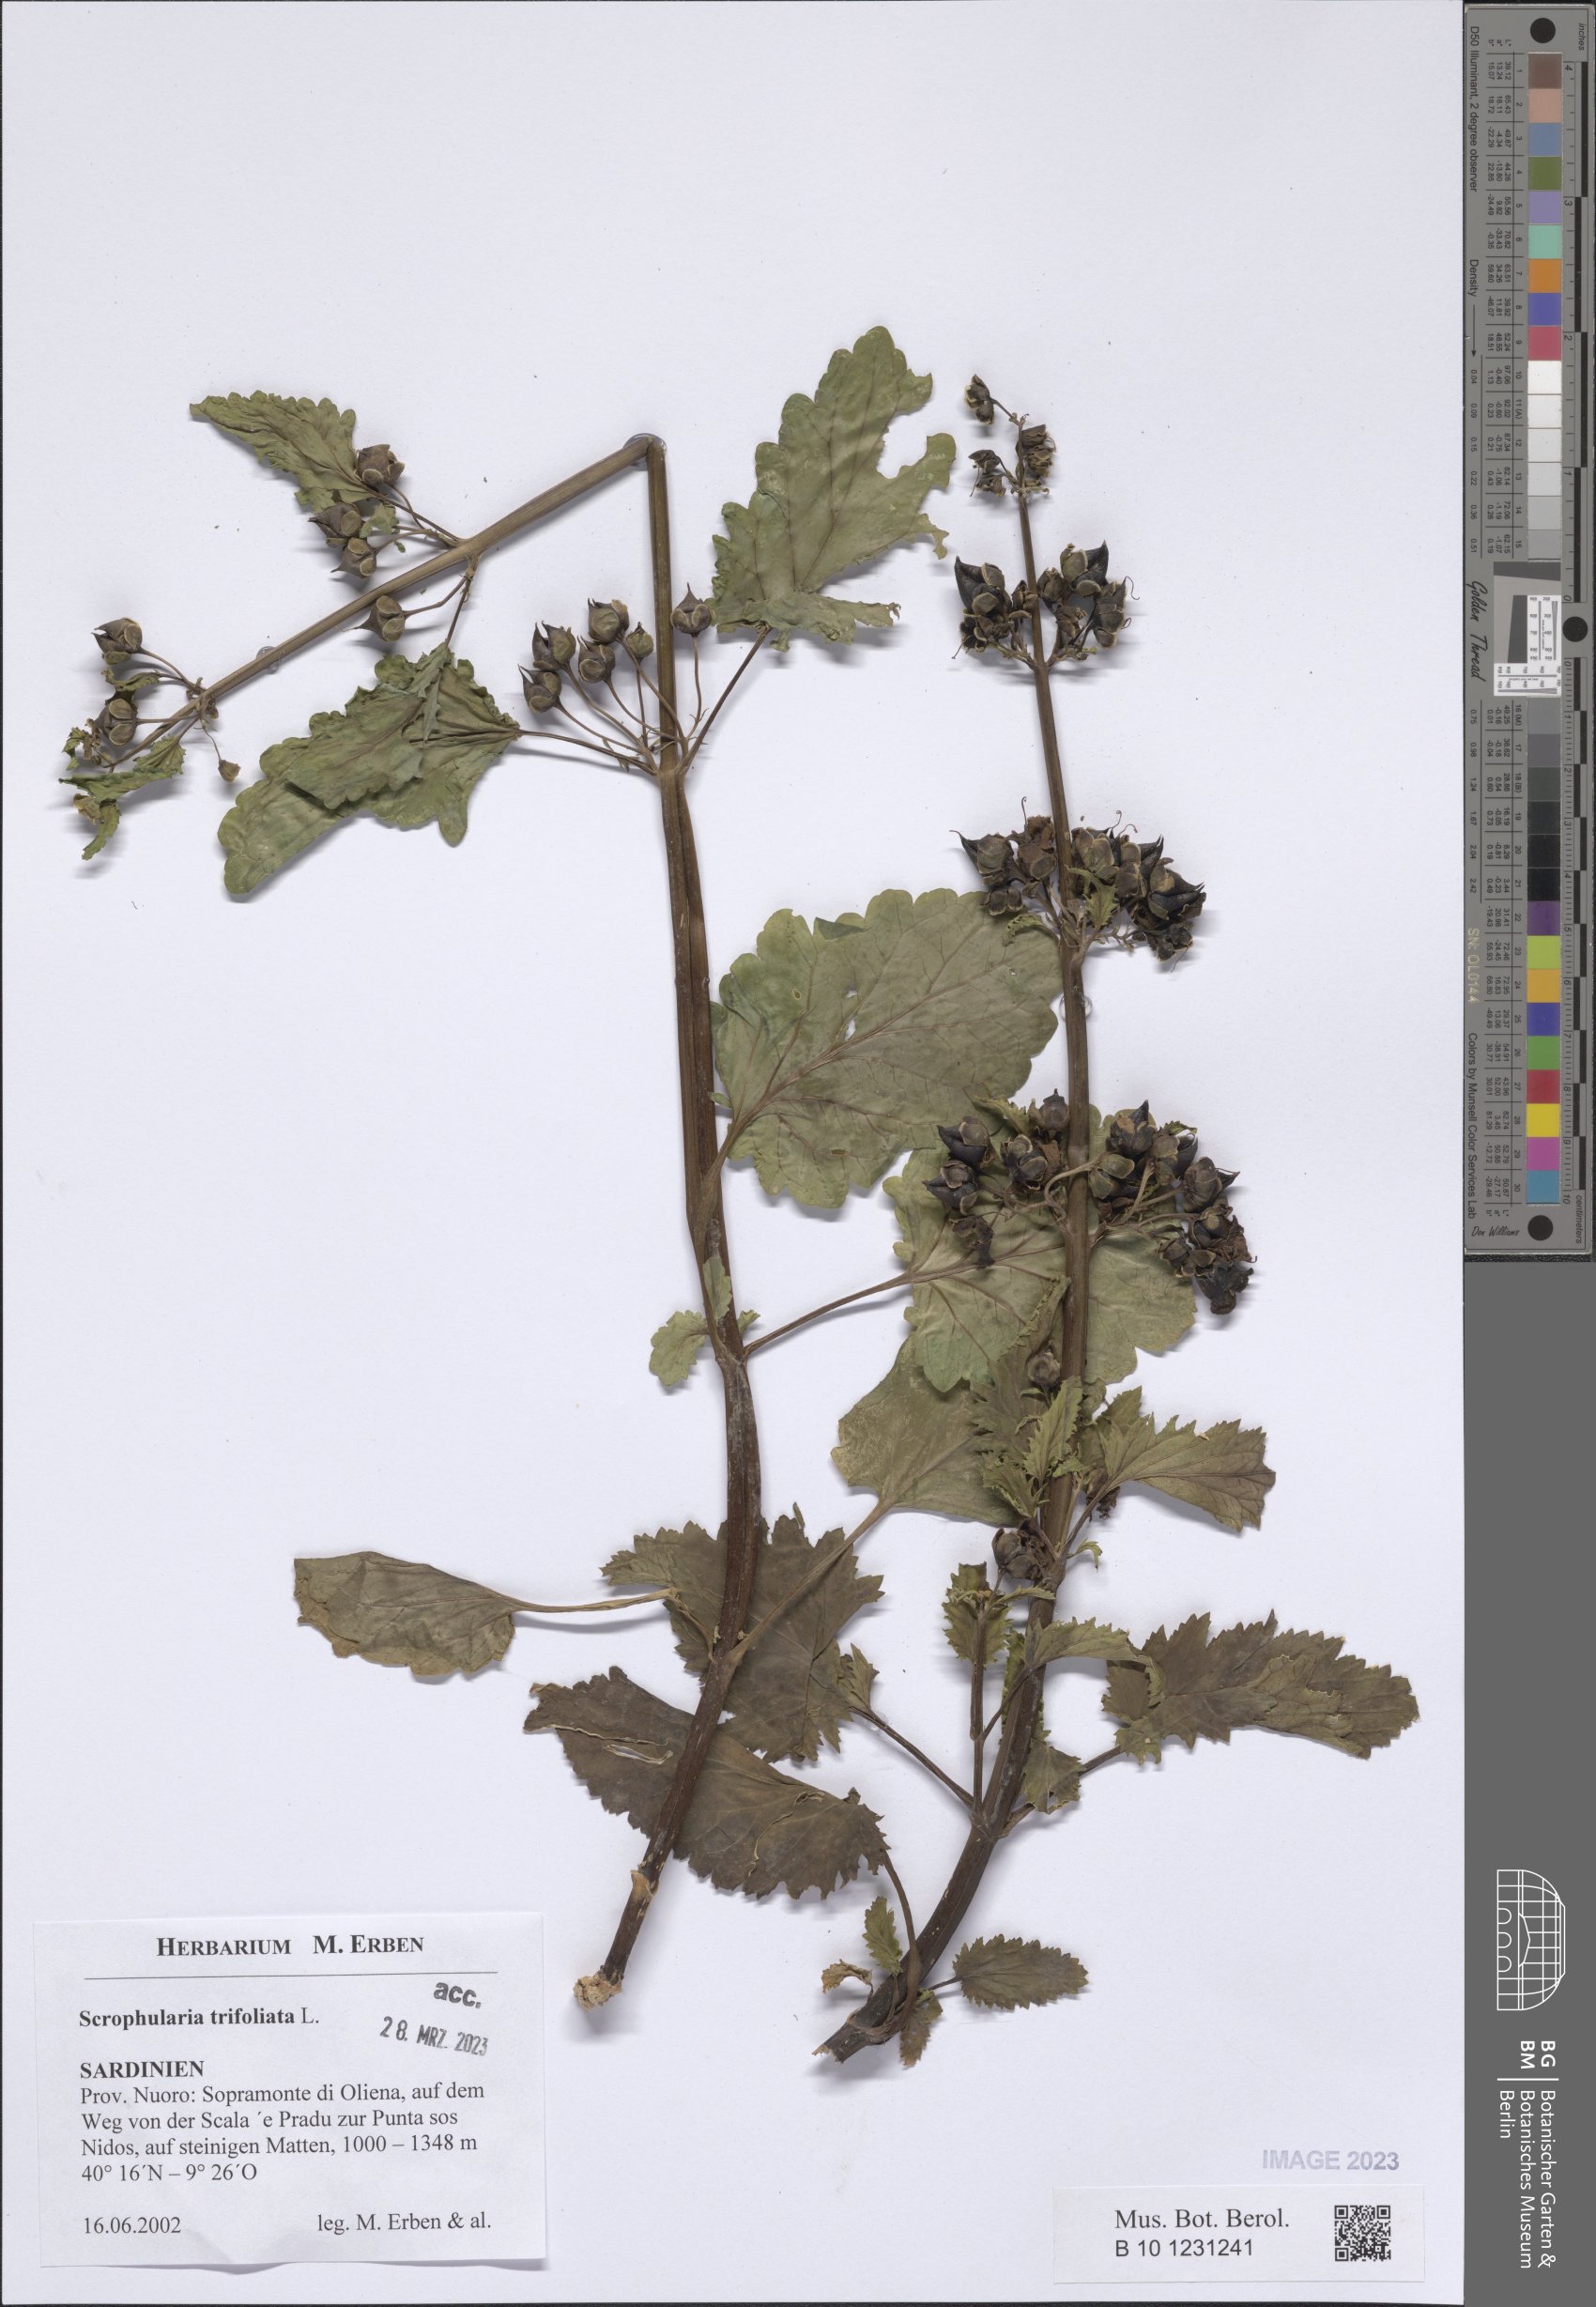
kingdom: Plantae
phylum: Tracheophyta
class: Magnoliopsida
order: Lamiales
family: Scrophulariaceae
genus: Scrophularia
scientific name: Scrophularia trifoliata
